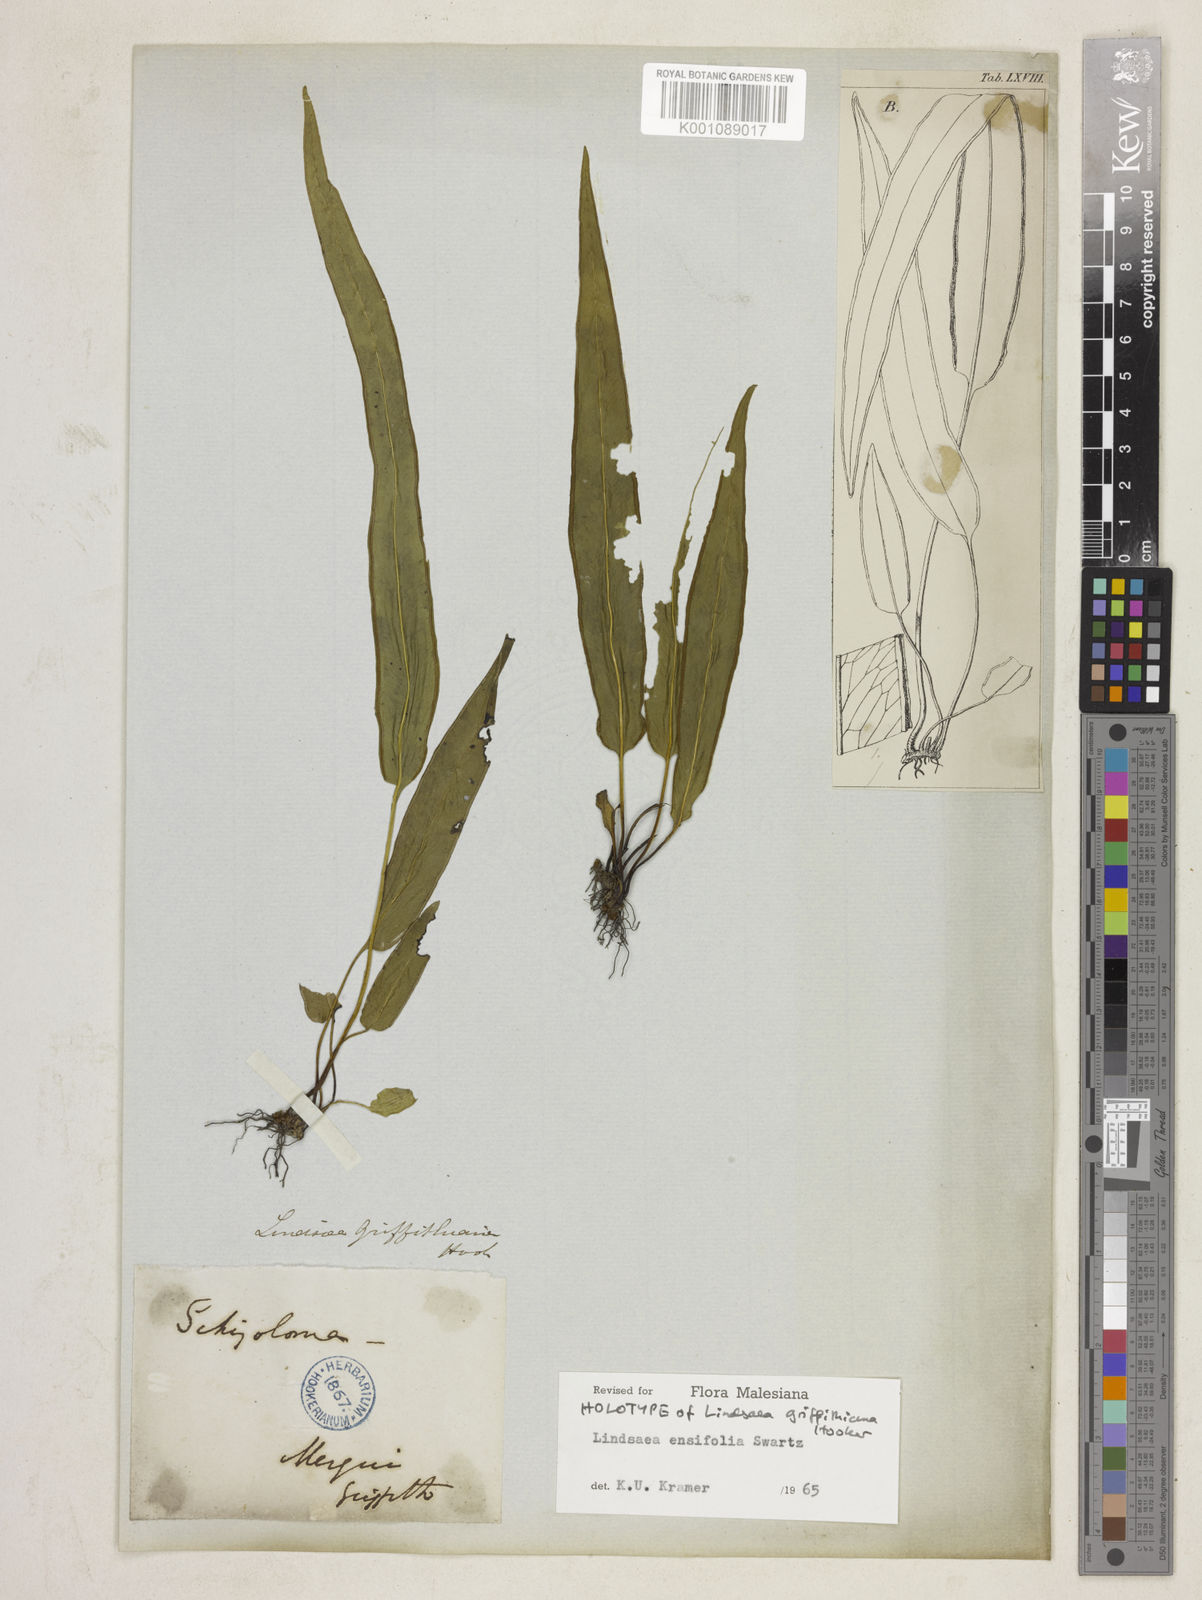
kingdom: Plantae
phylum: Tracheophyta
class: Polypodiopsida
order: Polypodiales
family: Lindsaeaceae
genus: Lindsaea
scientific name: Lindsaea ensifolia
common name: Graceful necklace fern
